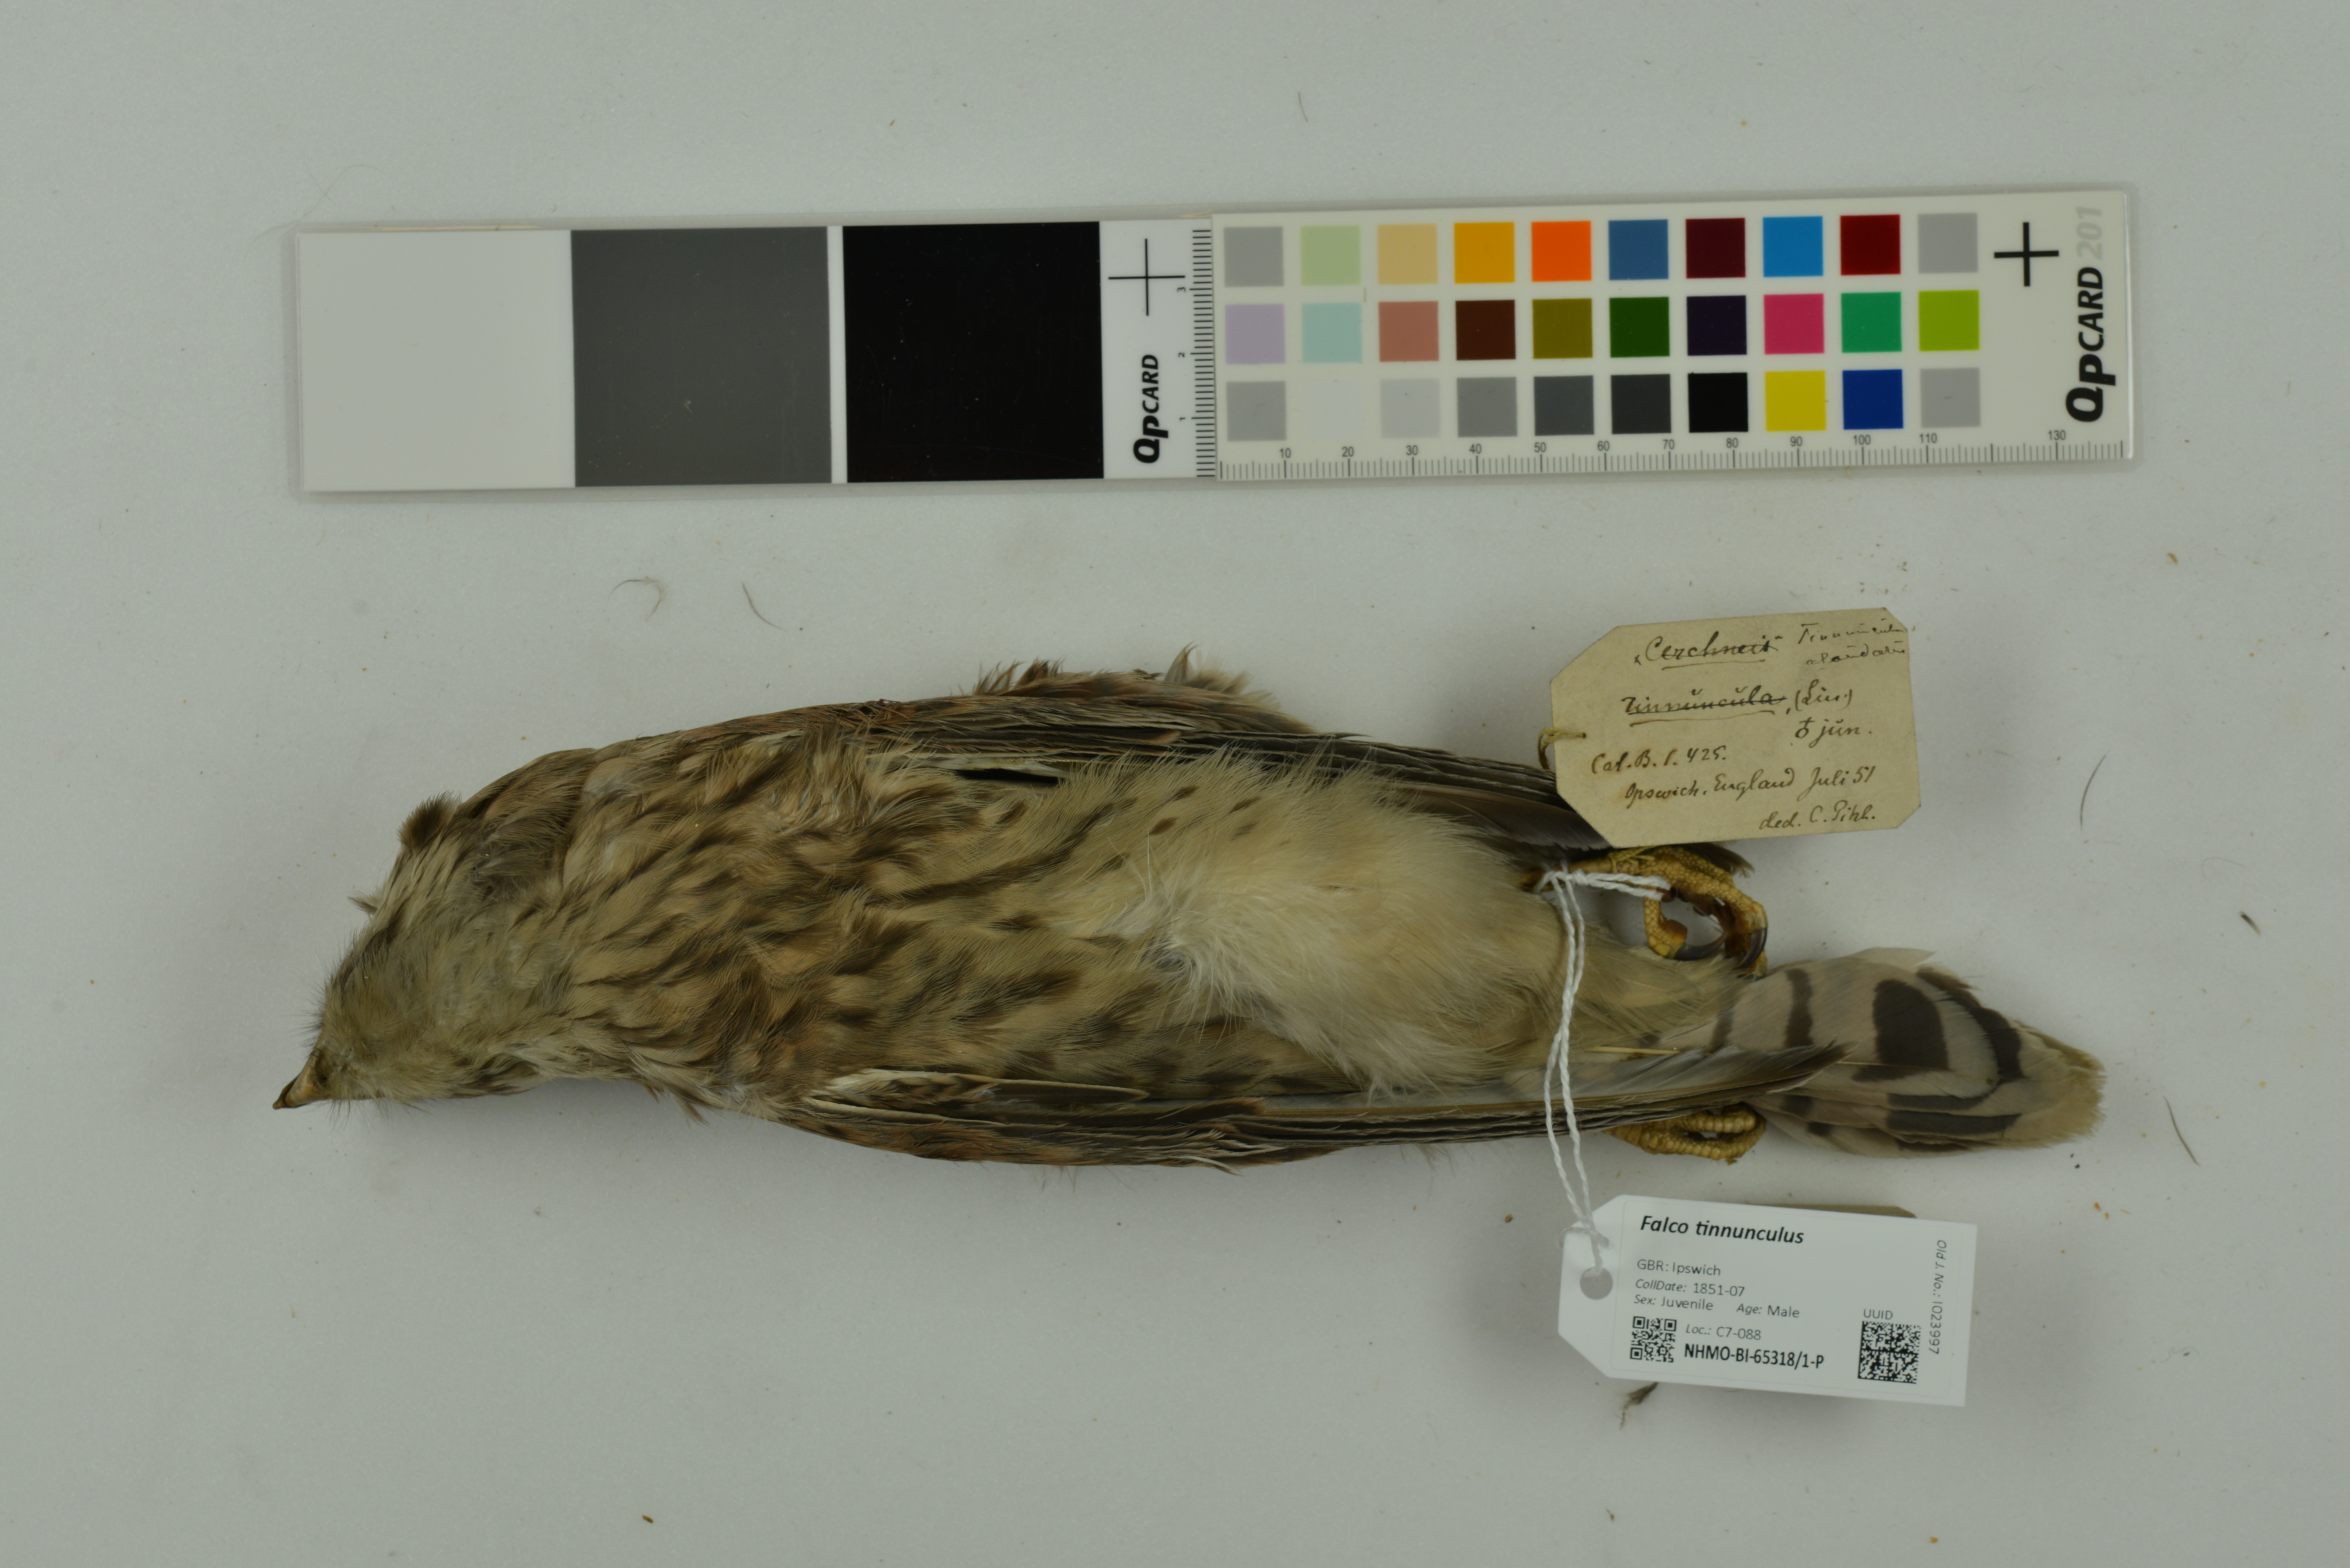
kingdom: Animalia
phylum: Chordata
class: Aves
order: Falconiformes
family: Falconidae
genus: Falco
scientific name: Falco tinnunculus
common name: Common kestrel
